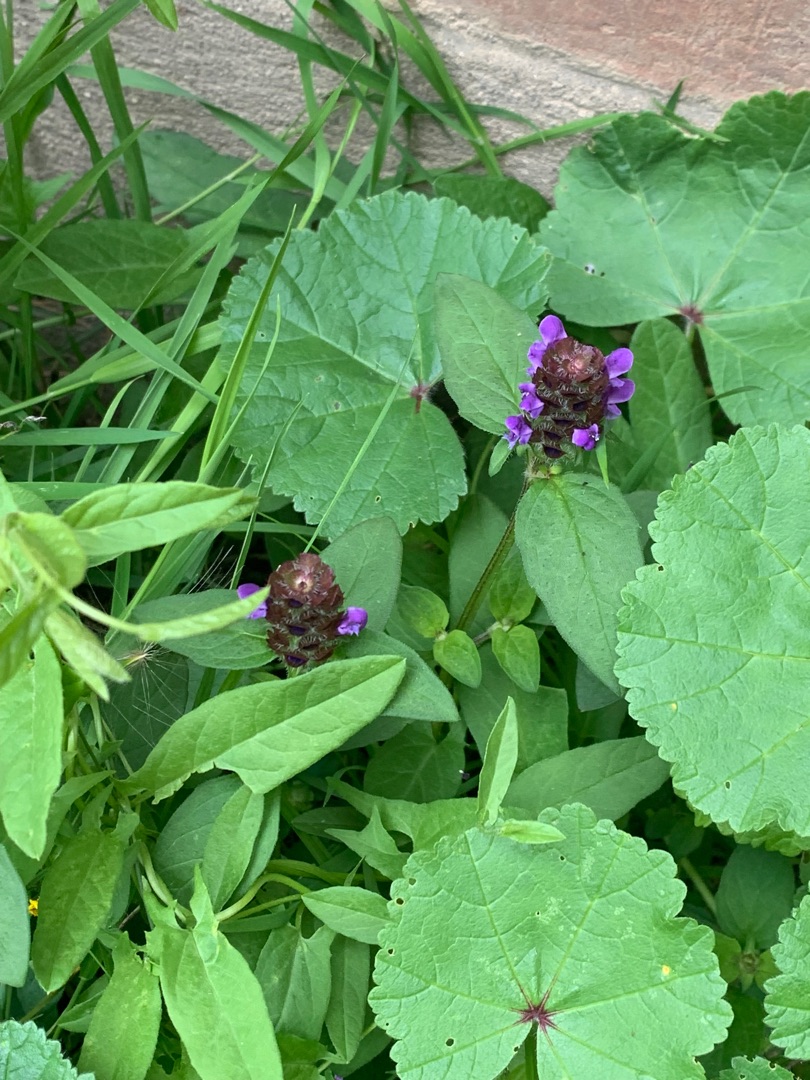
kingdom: Plantae
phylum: Tracheophyta
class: Magnoliopsida
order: Lamiales
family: Lamiaceae
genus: Prunella
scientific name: Prunella vulgaris
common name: Almindelig brunelle
